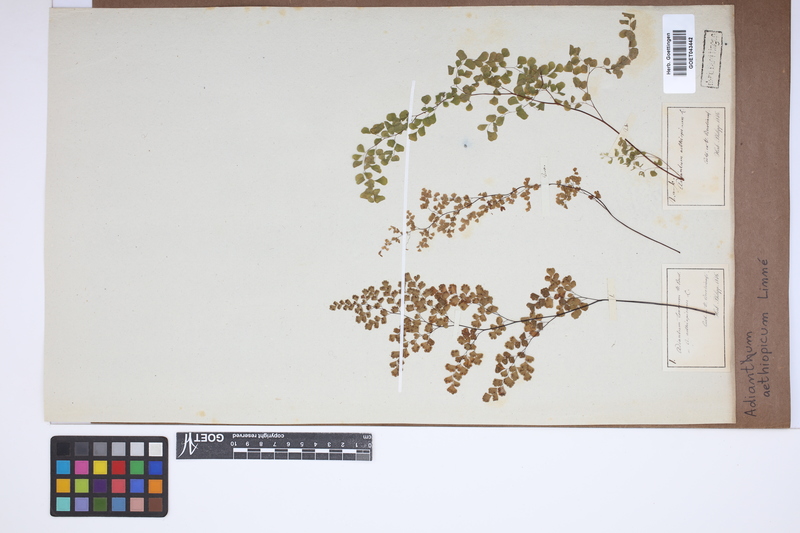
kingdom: Plantae
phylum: Tracheophyta
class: Polypodiopsida
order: Polypodiales
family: Pteridaceae
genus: Adiantum
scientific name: Adiantum aethiopicum
